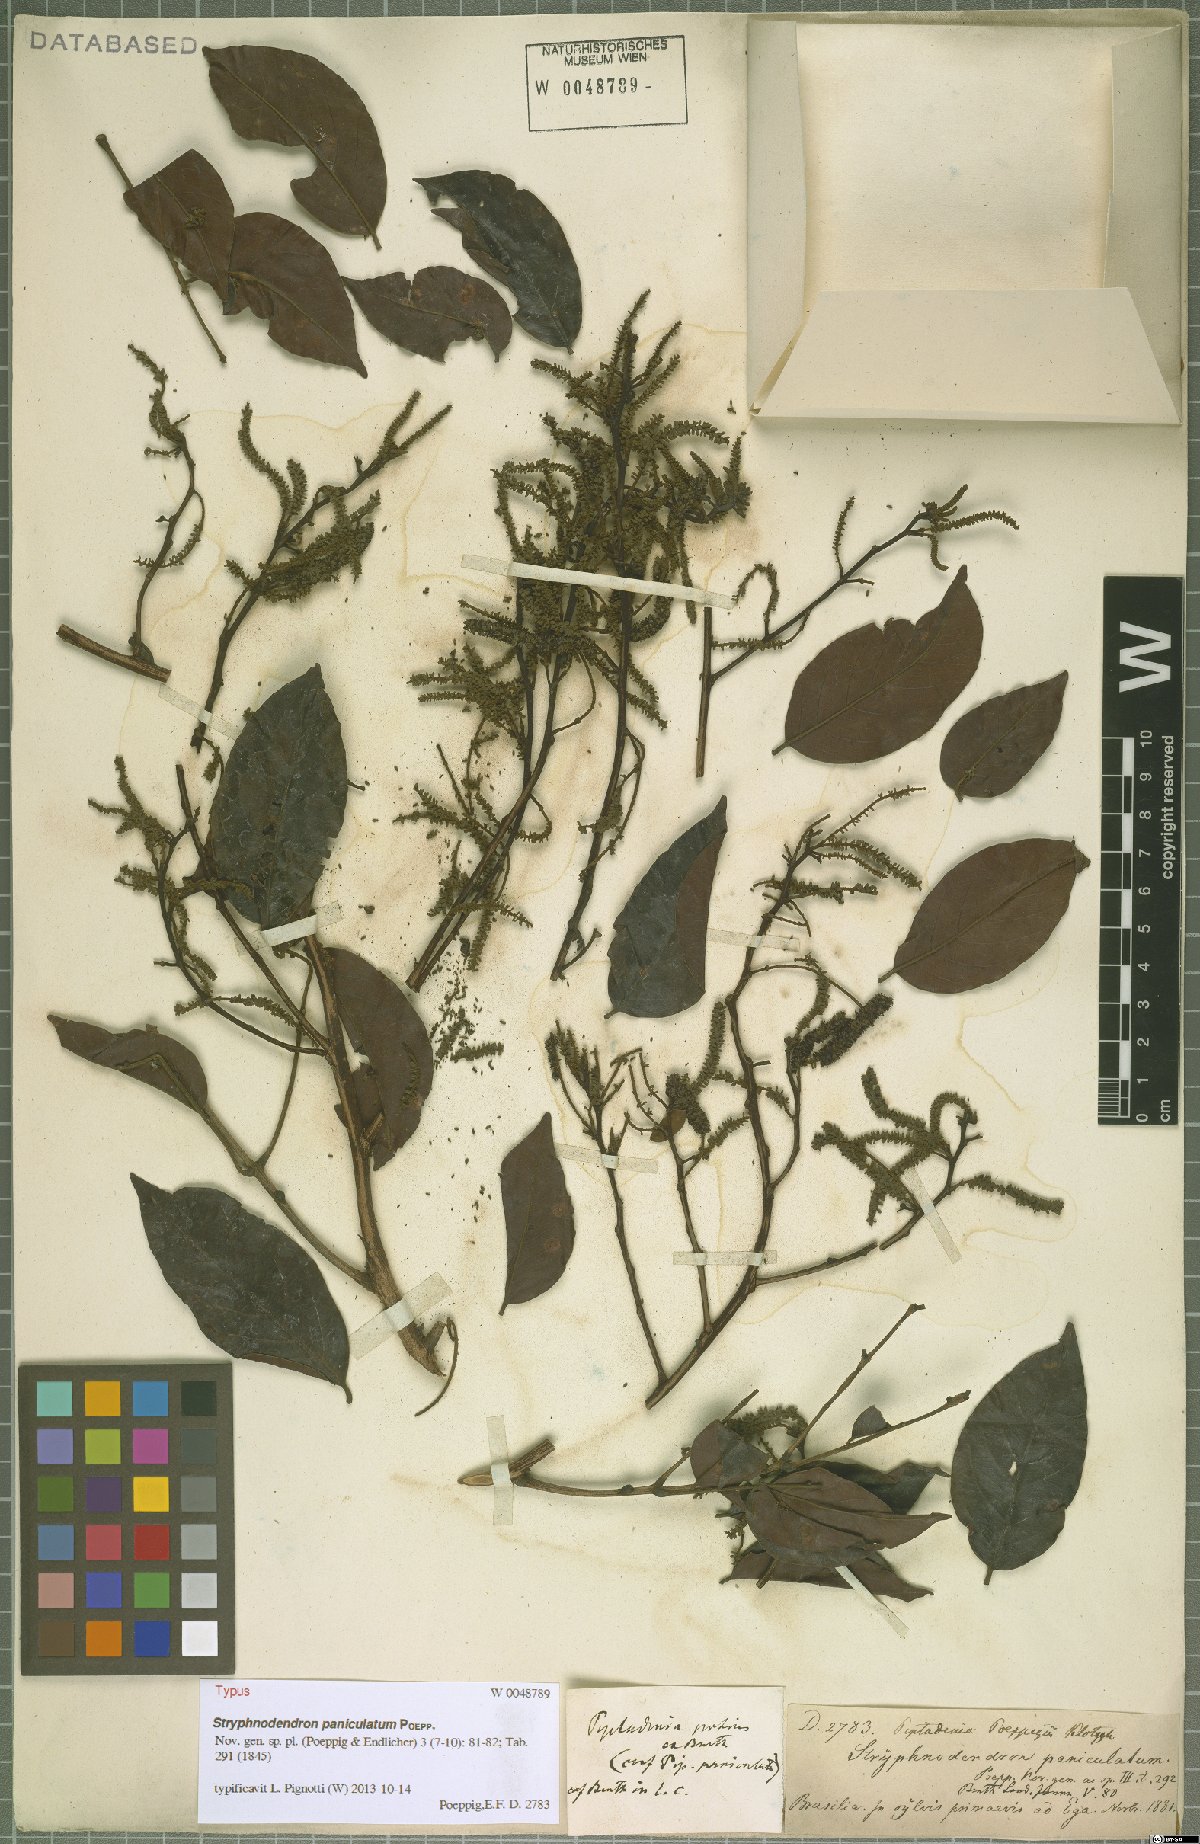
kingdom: Plantae
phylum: Tracheophyta
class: Magnoliopsida
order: Fabales
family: Fabaceae
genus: Stryphnodendron
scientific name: Stryphnodendron paniculatum
